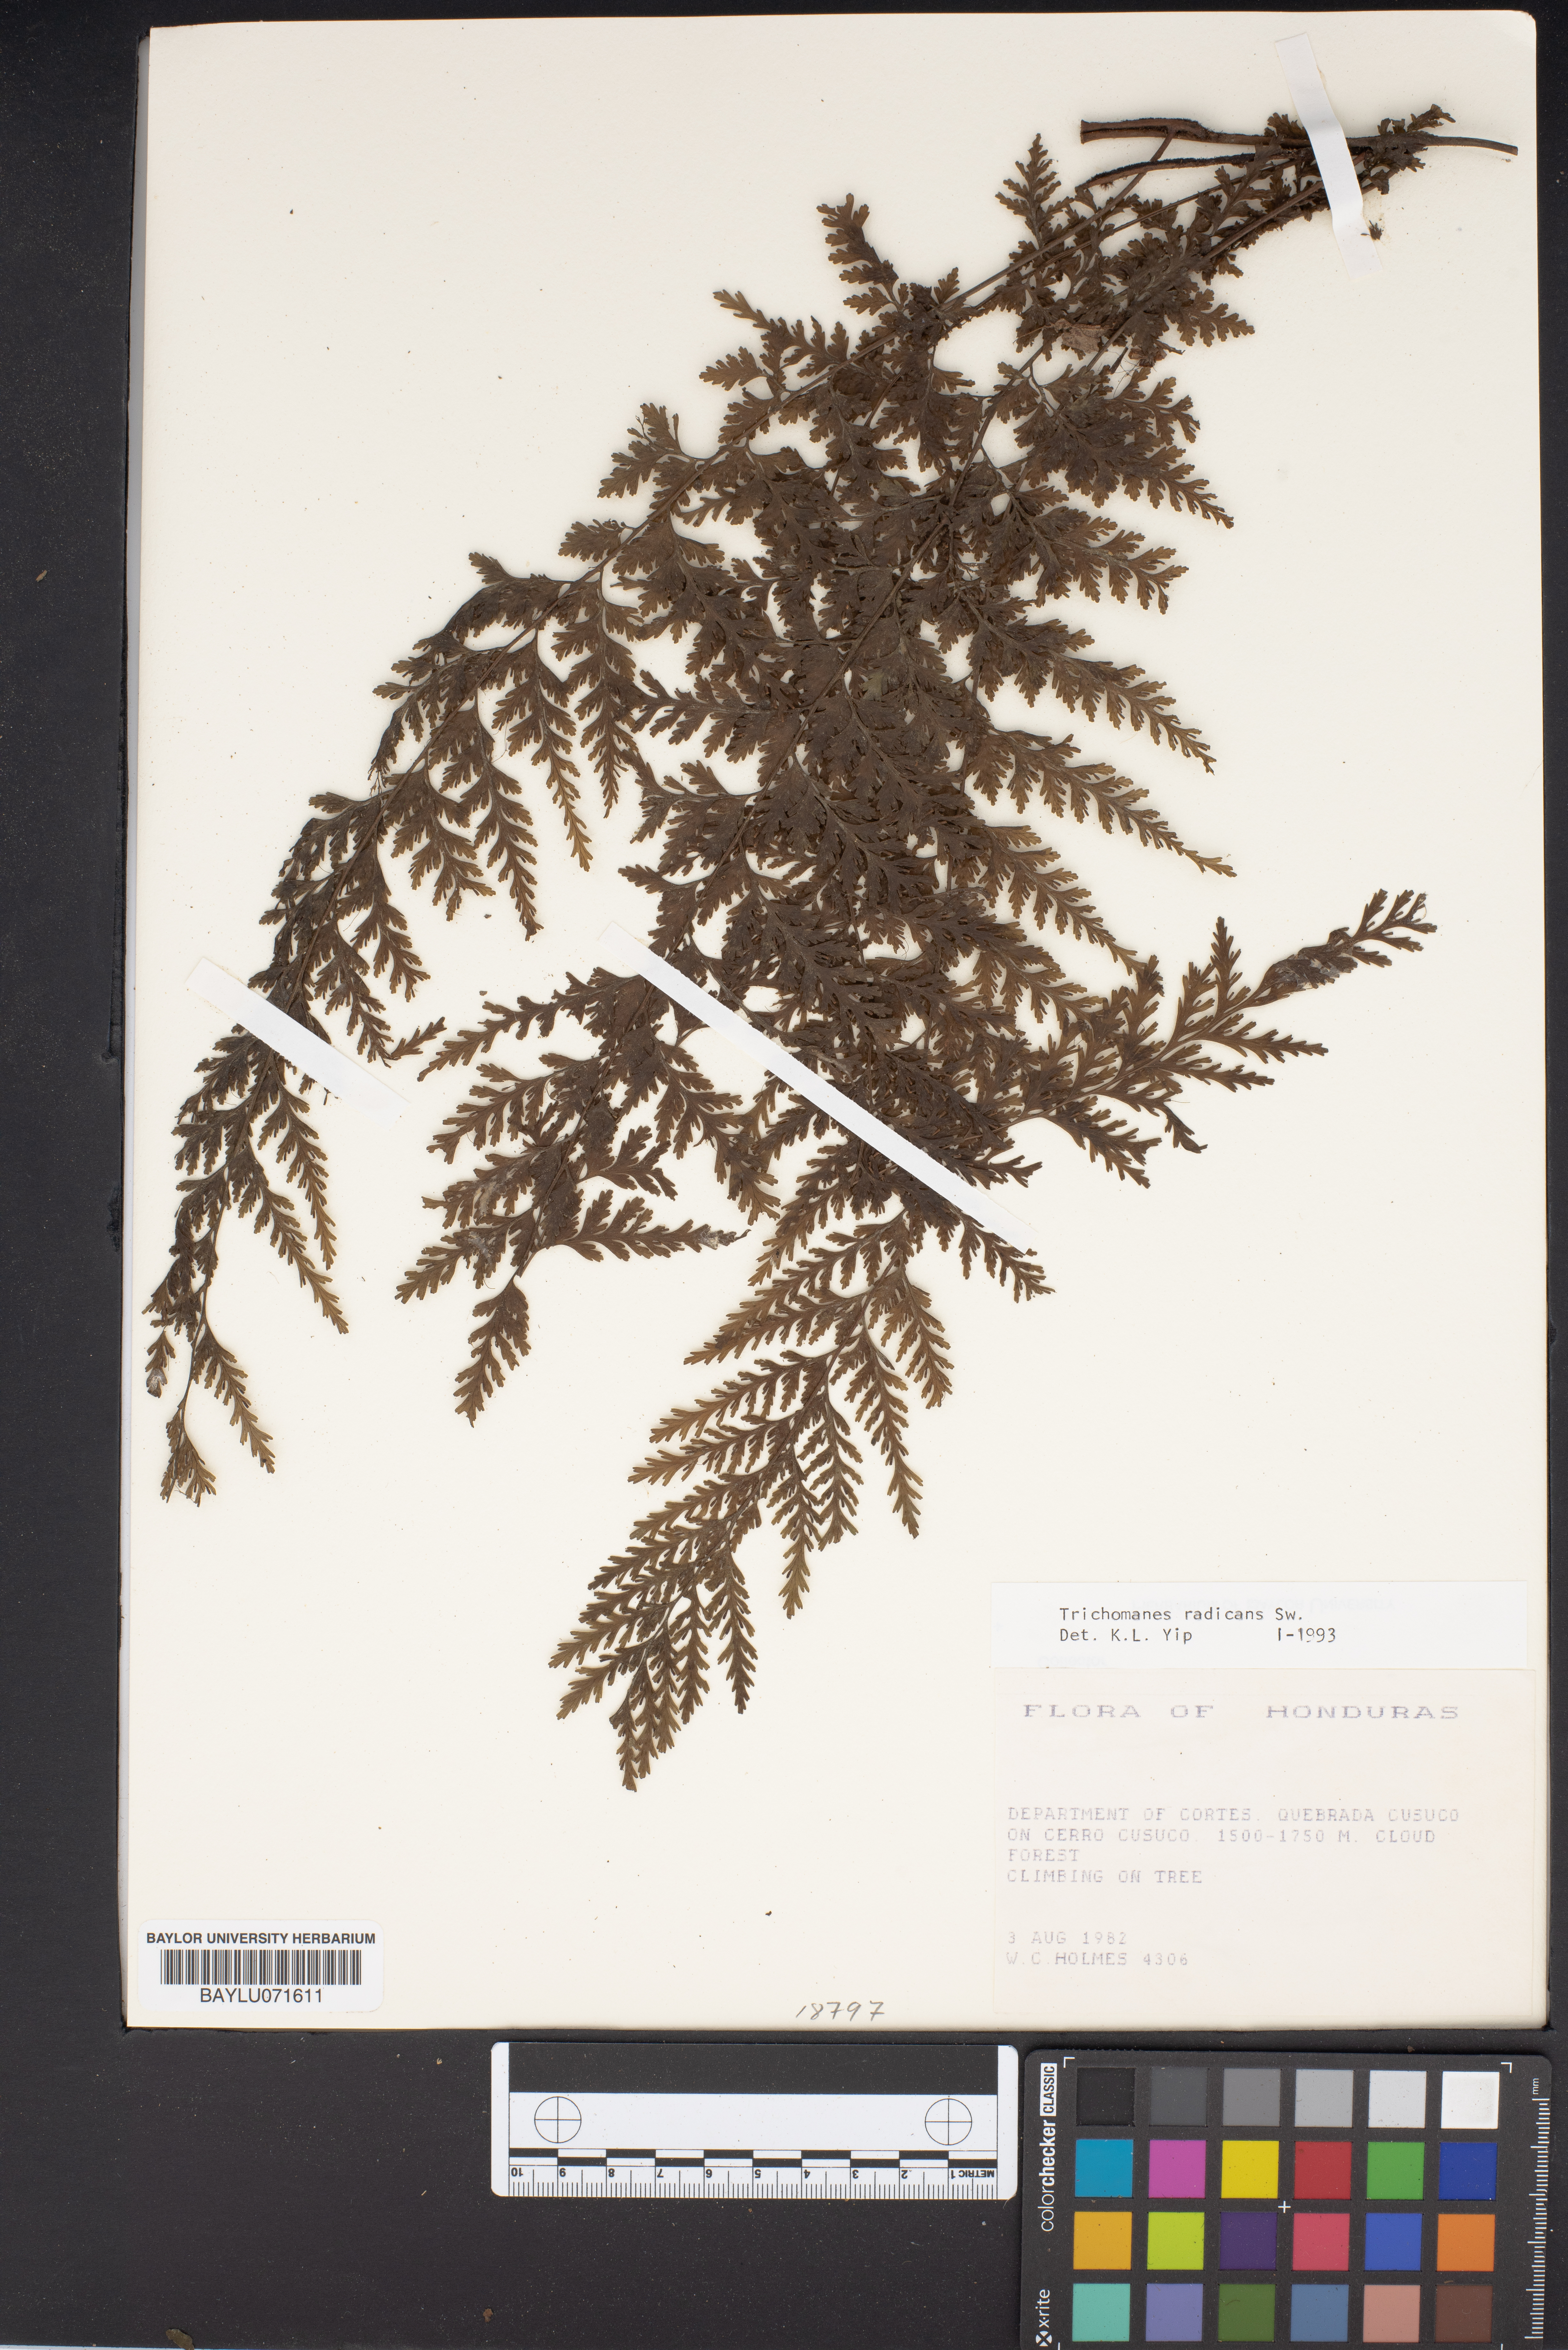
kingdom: Plantae
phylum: Tracheophyta
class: Polypodiopsida
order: Hymenophyllales
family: Hymenophyllaceae
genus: Vandenboschia
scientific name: Vandenboschia radicans
